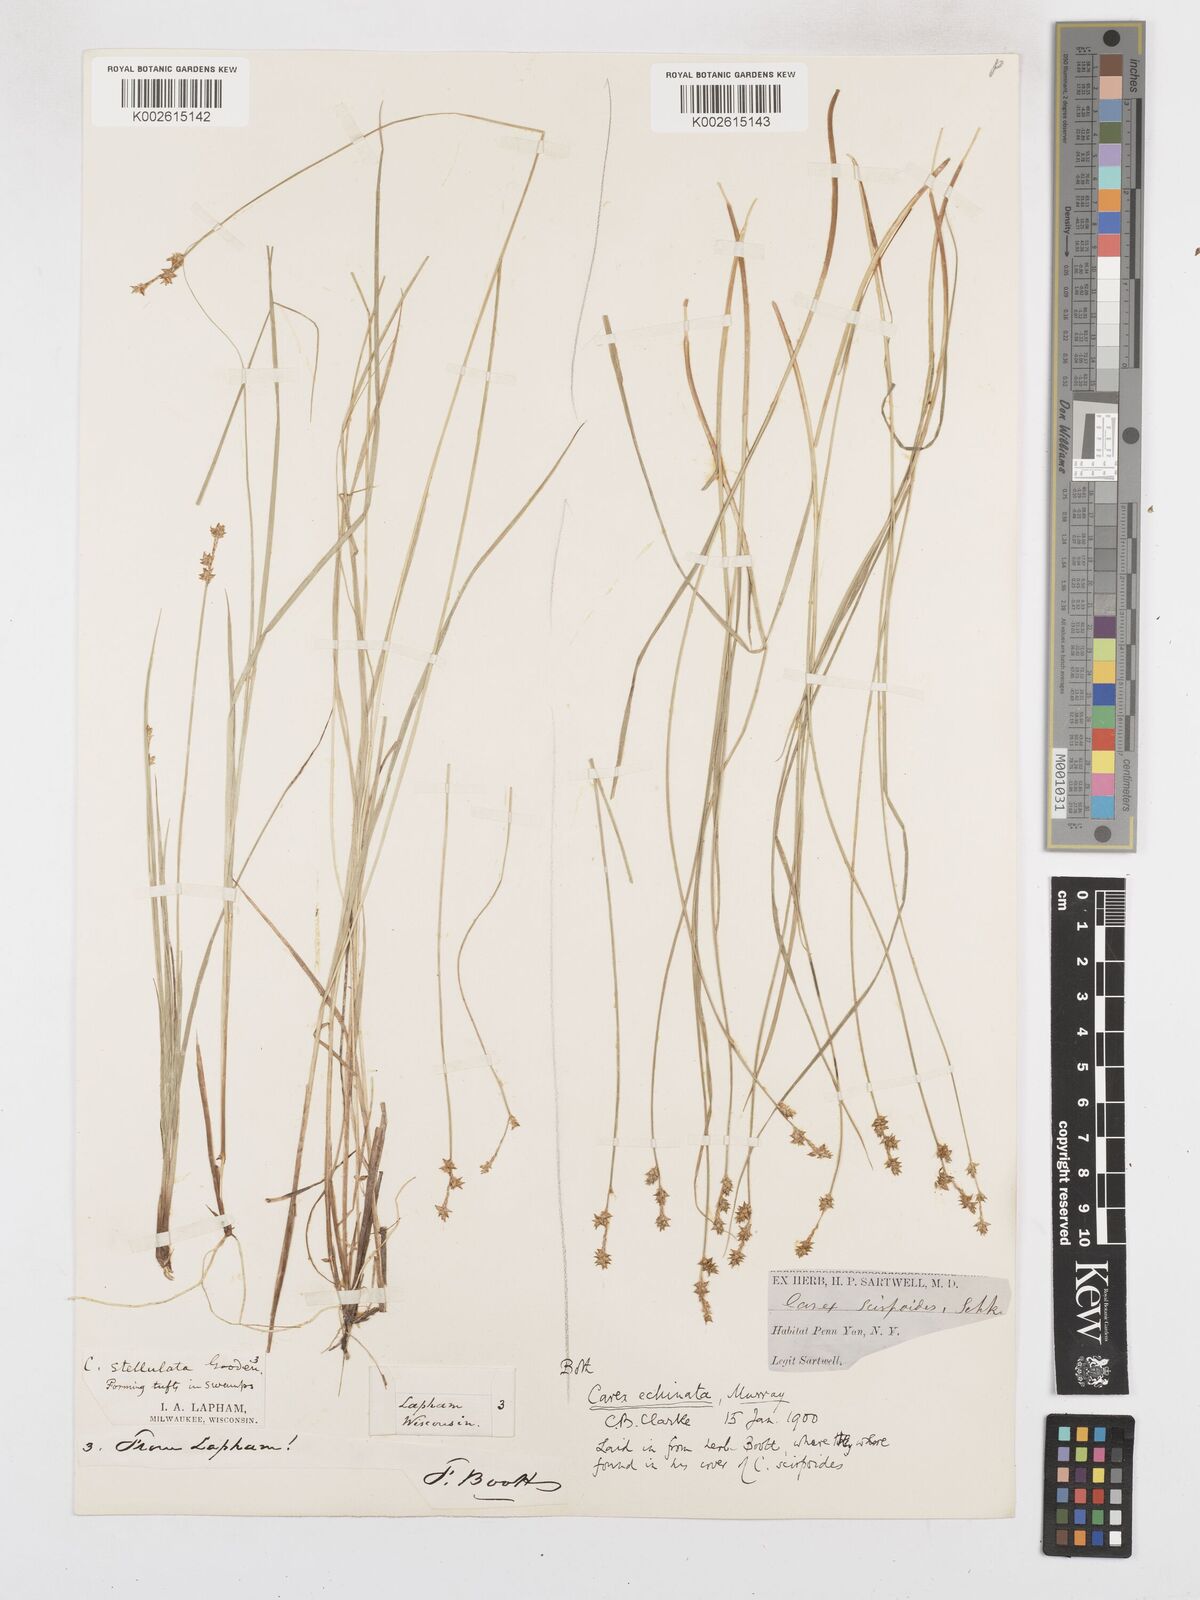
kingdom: Plantae
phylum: Tracheophyta
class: Liliopsida
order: Poales
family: Cyperaceae
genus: Carex
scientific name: Carex echinata
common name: Star sedge
